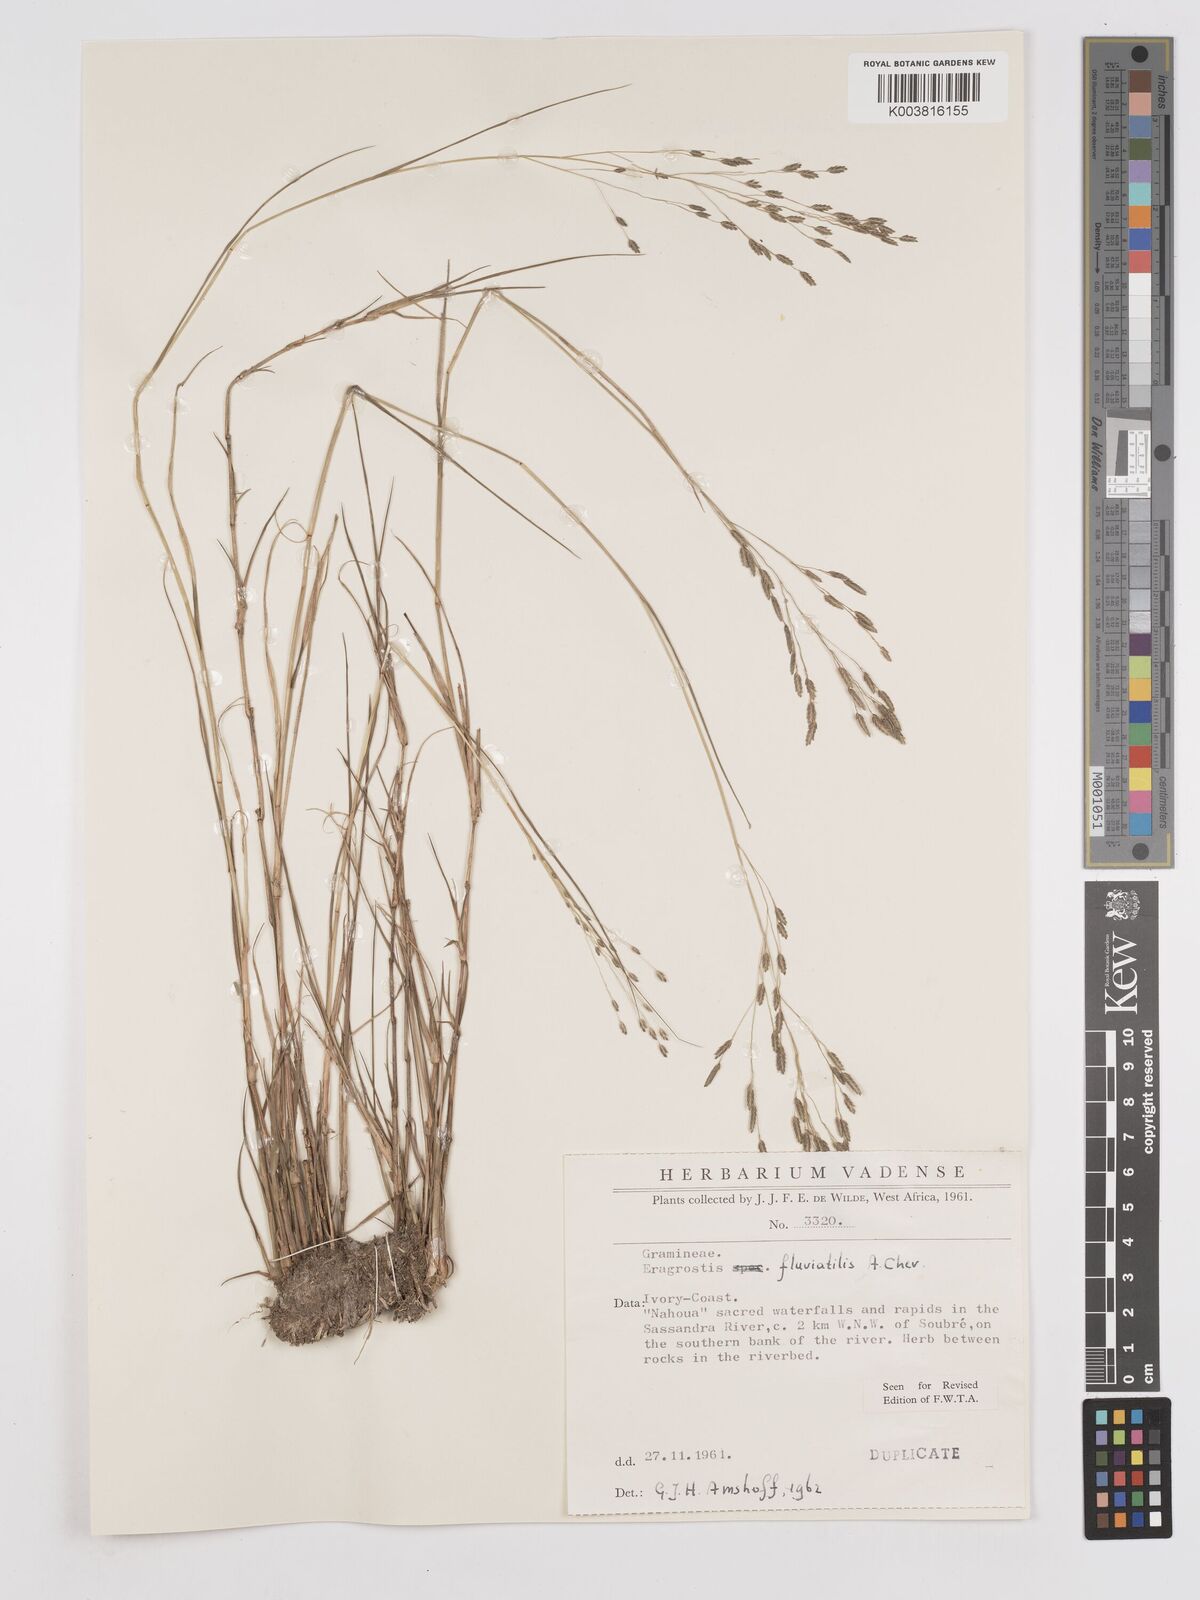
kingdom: Plantae
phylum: Tracheophyta
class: Liliopsida
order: Poales
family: Poaceae
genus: Eragrostis
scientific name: Eragrostis barteri
